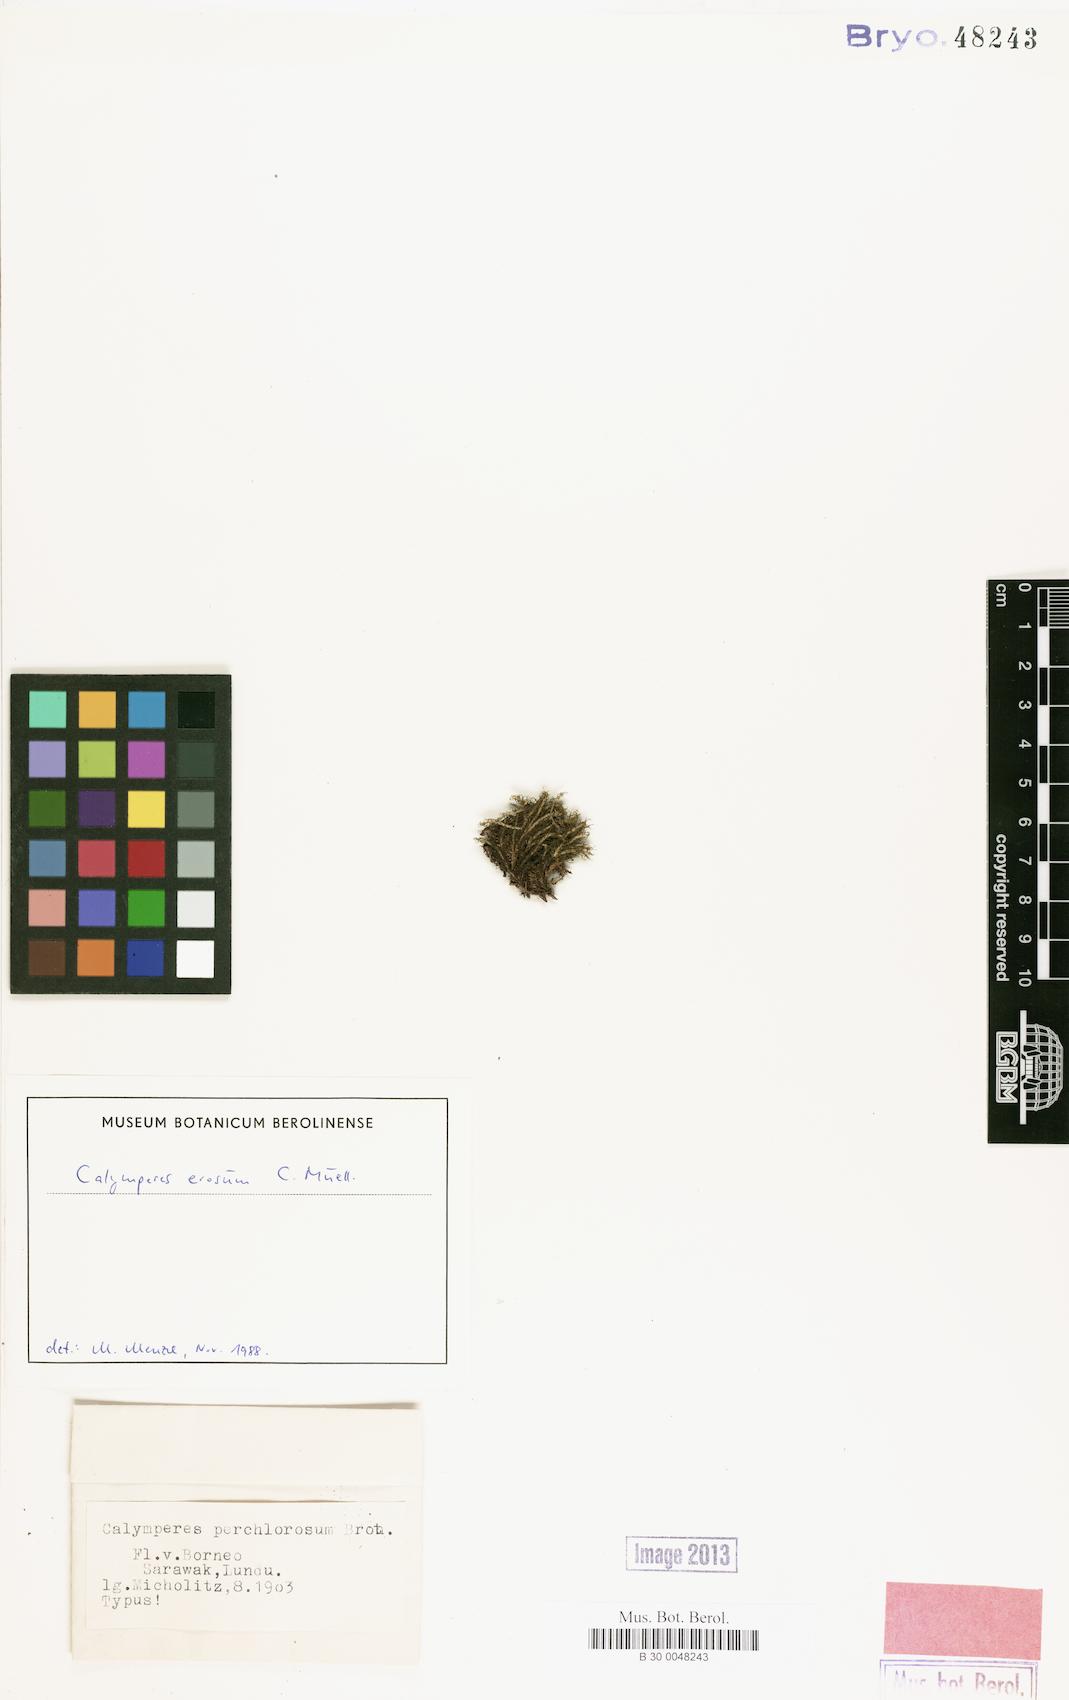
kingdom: Plantae
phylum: Bryophyta
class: Bryopsida
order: Dicranales
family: Calymperaceae
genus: Calymperes
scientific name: Calymperes erosum
